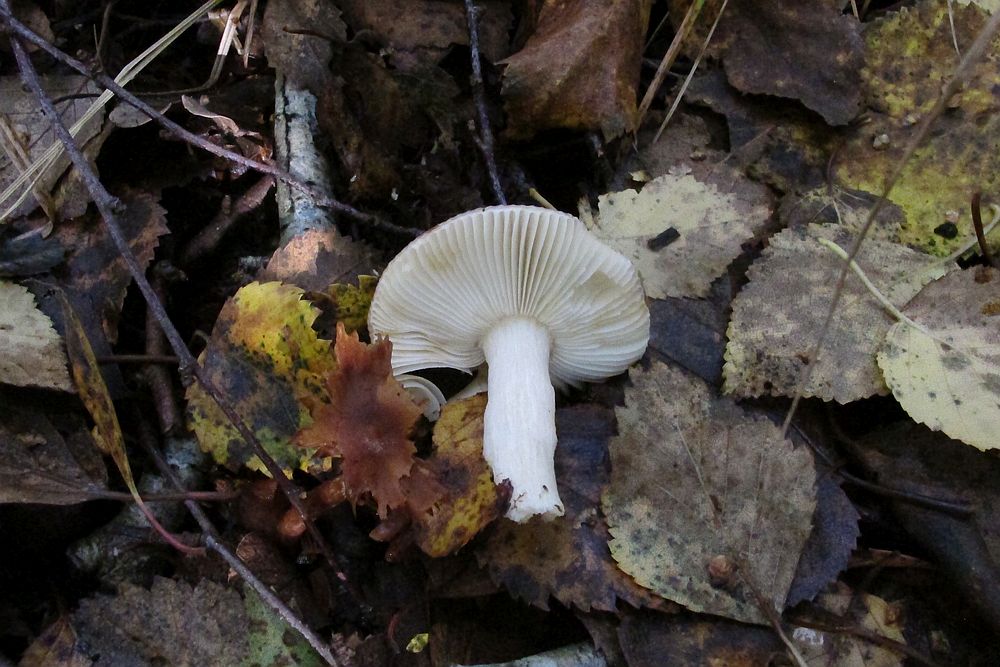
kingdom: Fungi
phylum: Basidiomycota
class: Agaricomycetes
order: Russulales
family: Russulaceae
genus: Russula
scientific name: Russula versicolor
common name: foranderlig skørhat
